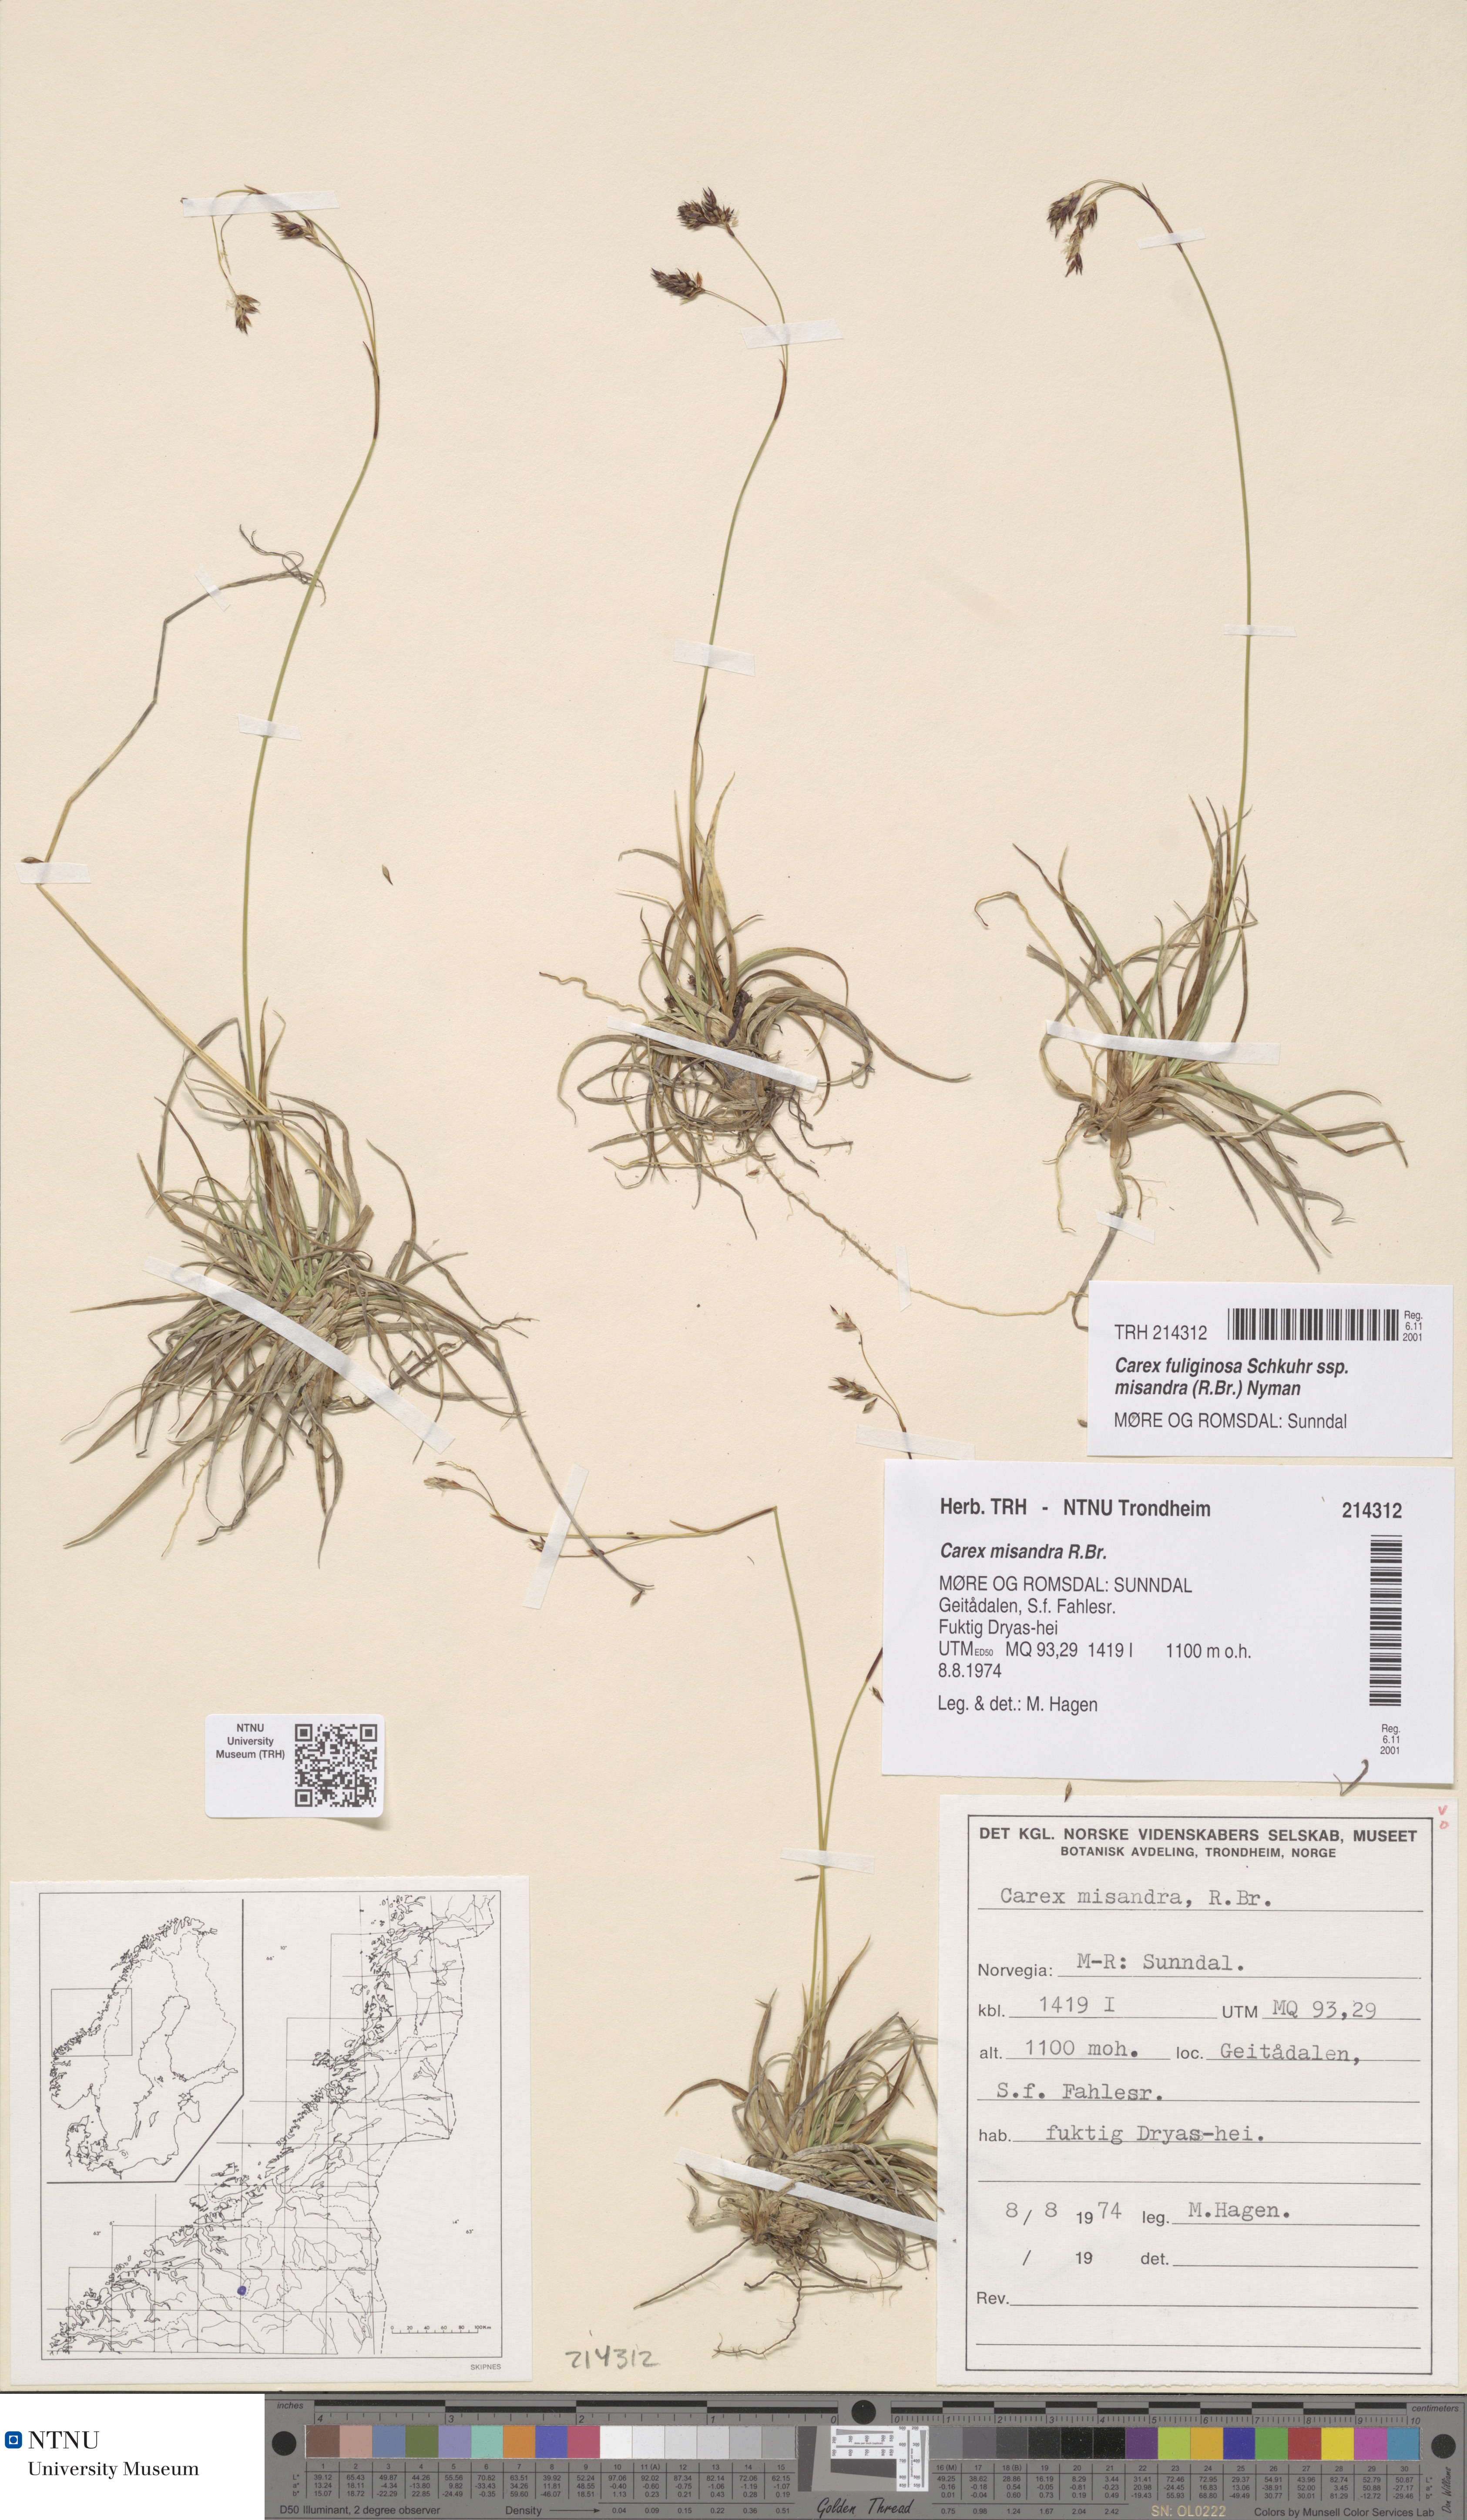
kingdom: Plantae
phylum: Tracheophyta
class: Liliopsida
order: Poales
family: Cyperaceae
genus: Carex
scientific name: Carex fuliginosa
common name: Few-flowered sedge
